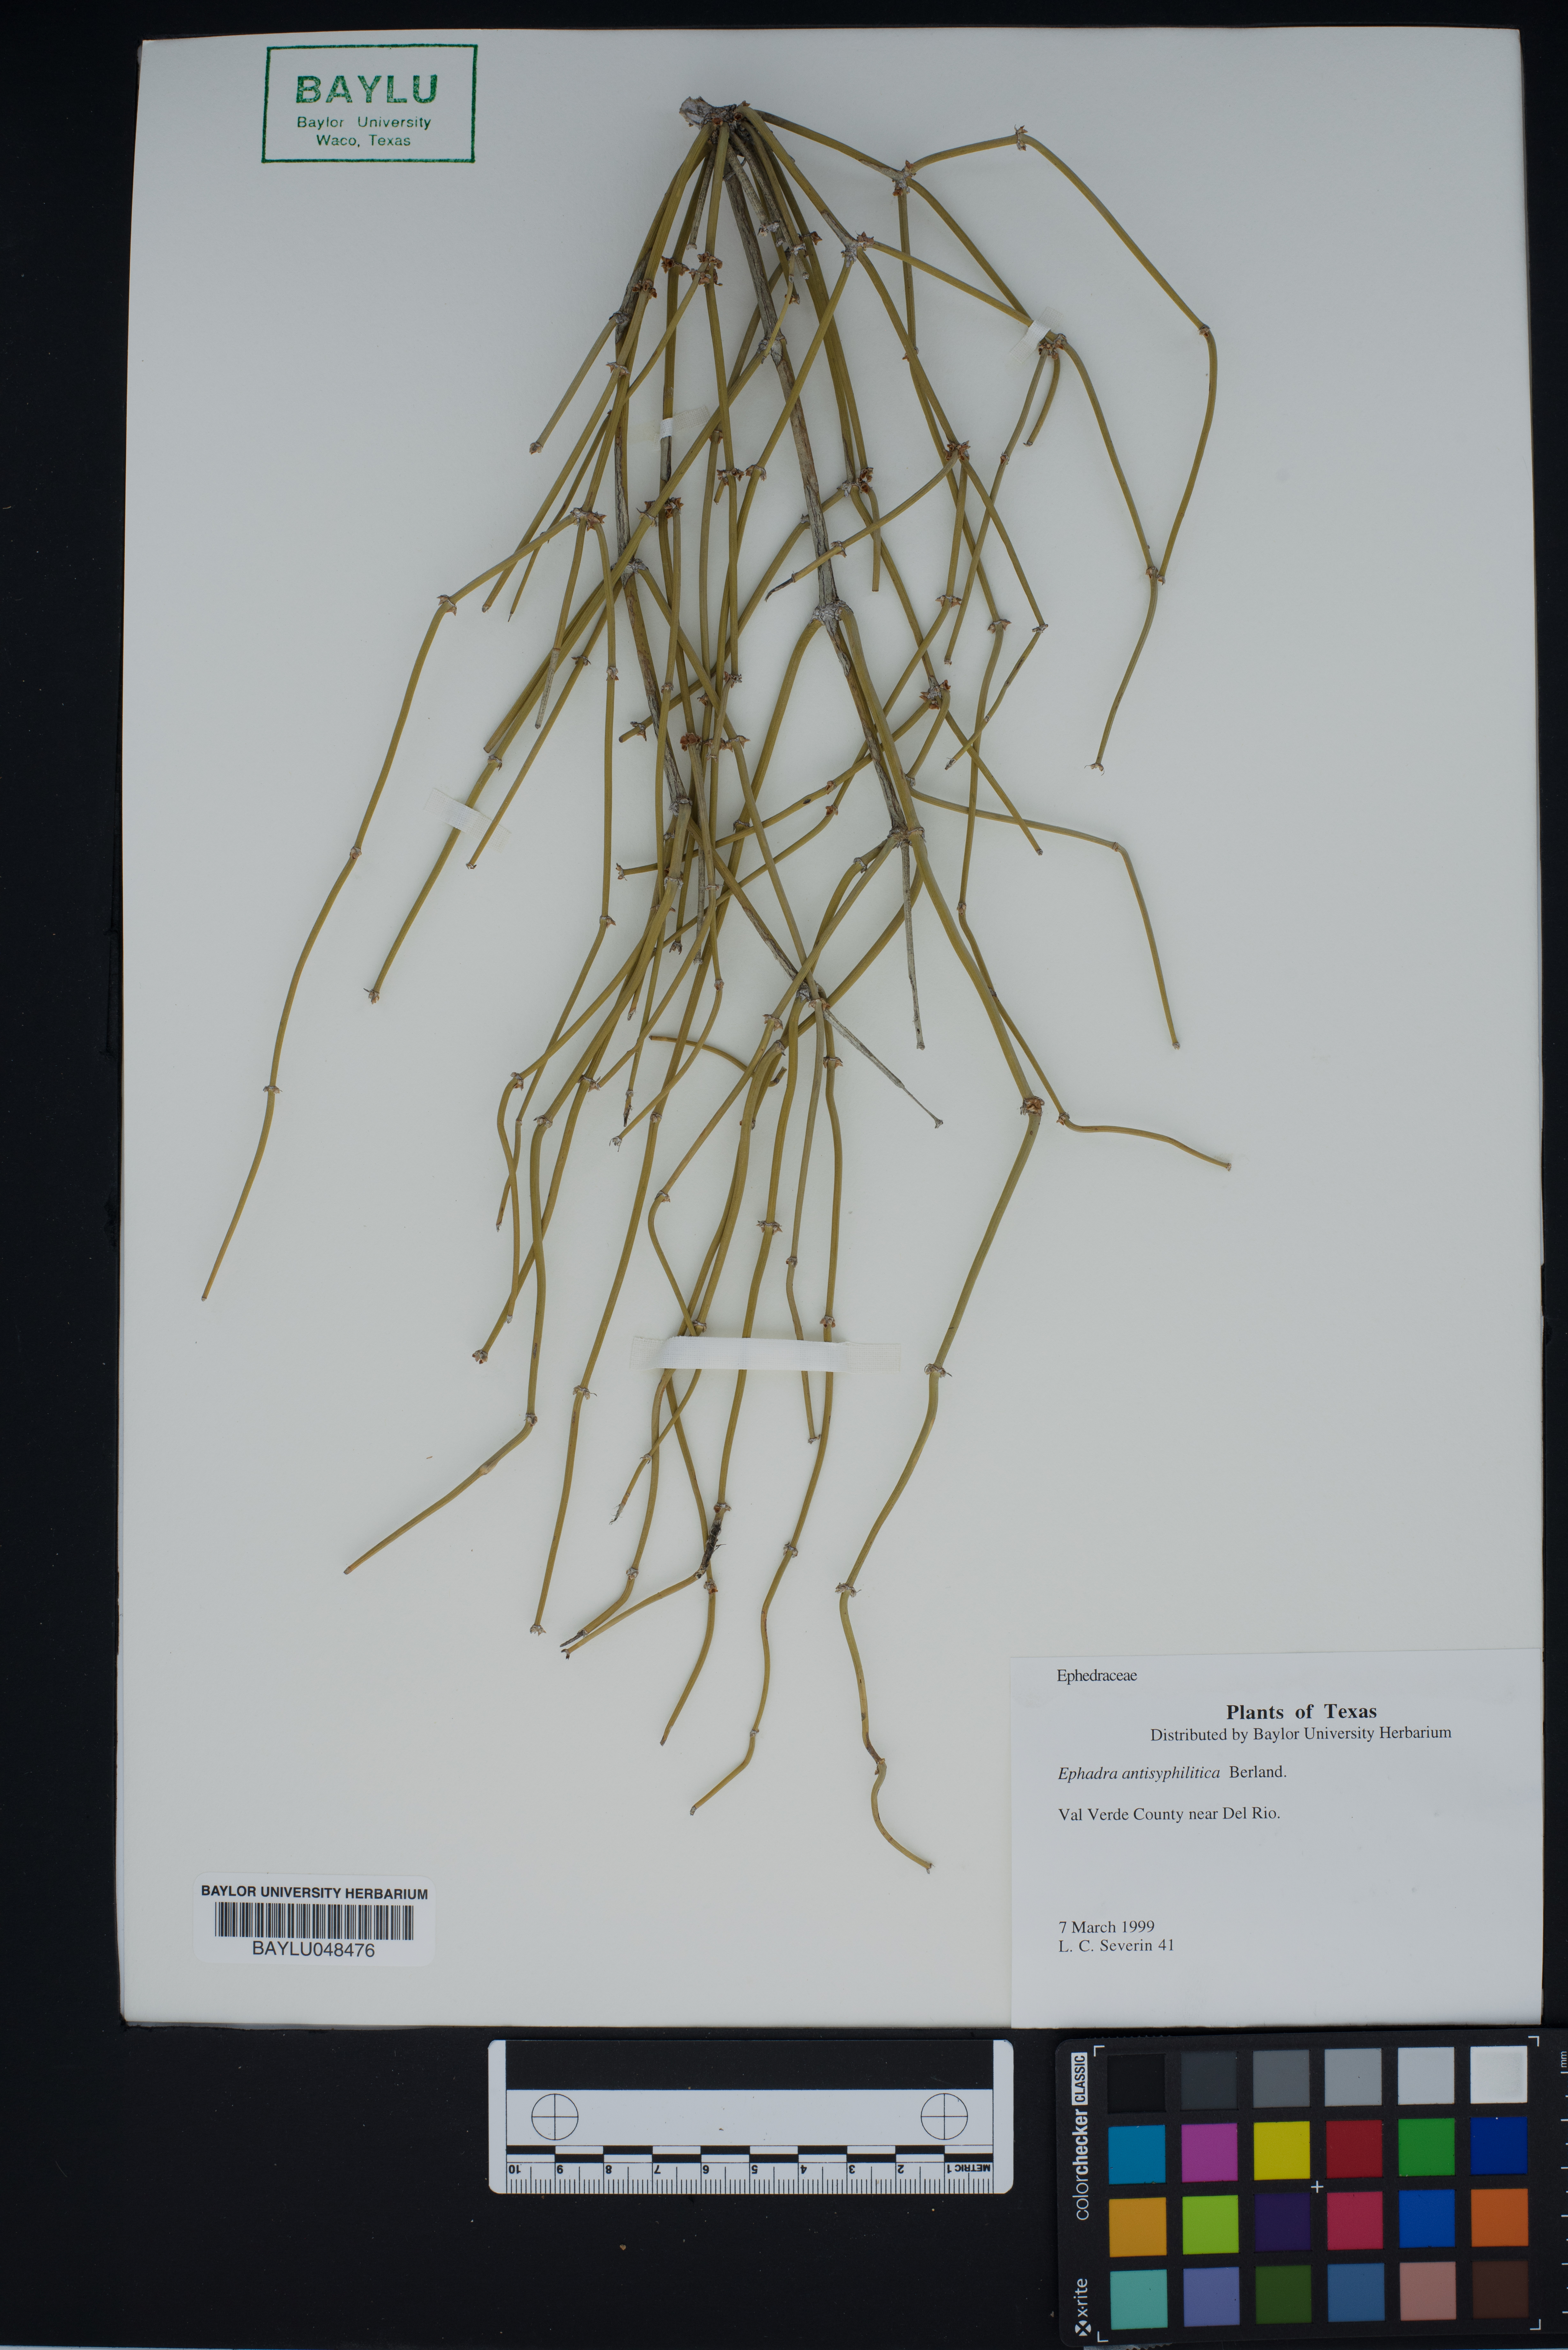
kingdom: Plantae
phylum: Tracheophyta
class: Gnetopsida
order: Ephedrales
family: Ephedraceae
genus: Ephedra
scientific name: Ephedra antisyphilitica
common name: Clipweed
